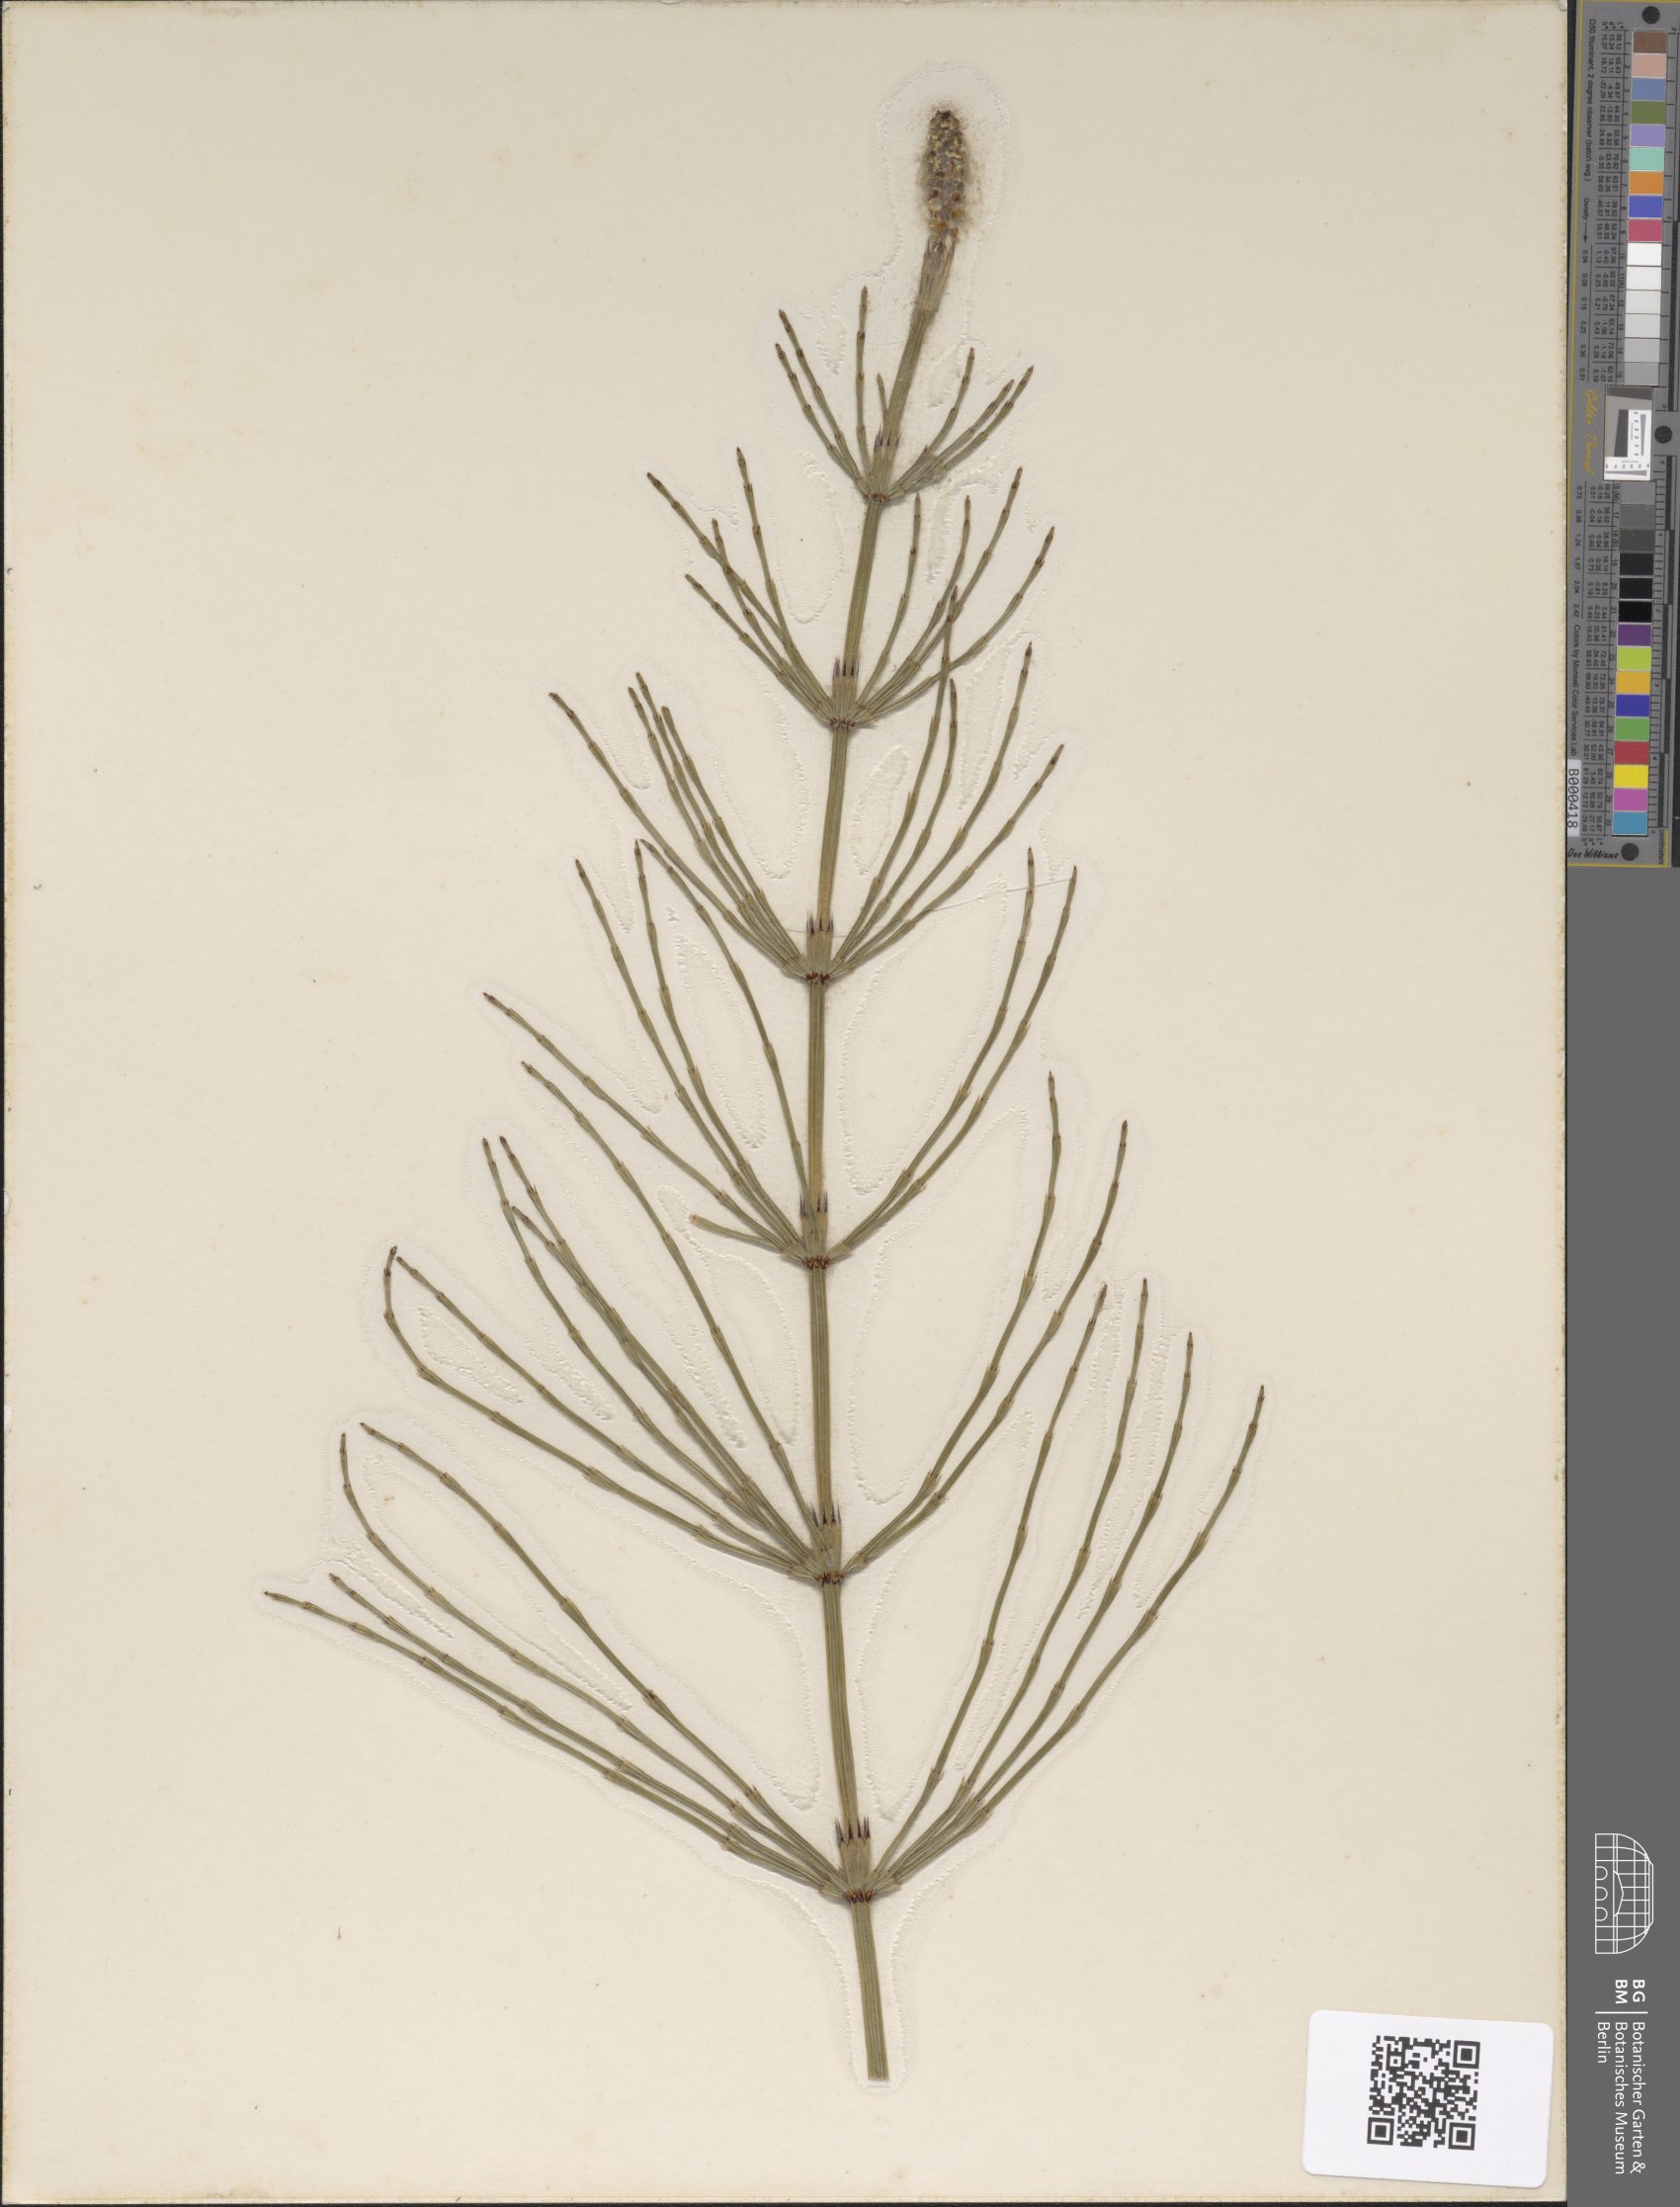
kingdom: Plantae
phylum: Tracheophyta
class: Polypodiopsida
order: Equisetales
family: Equisetaceae
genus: Equisetum
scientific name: Equisetum palustre
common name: Marsh horsetail
